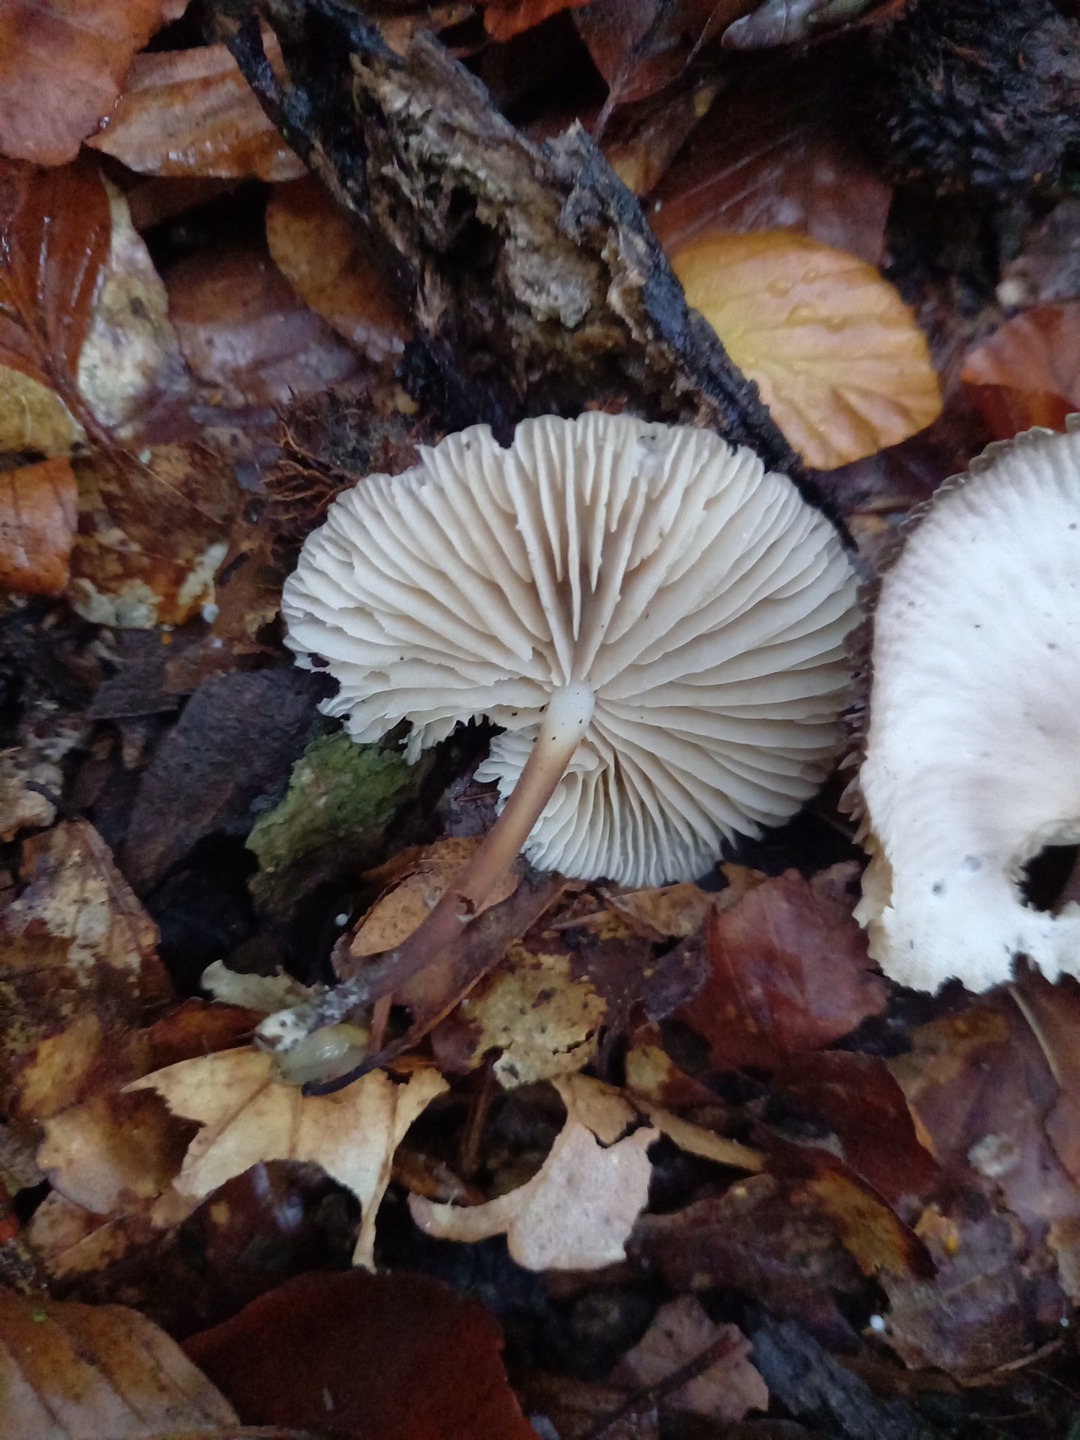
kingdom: Fungi
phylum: Basidiomycota
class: Agaricomycetes
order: Agaricales
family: Marasmiaceae
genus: Marasmius
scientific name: Marasmius wynneae
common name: hvælvet bruskhat
